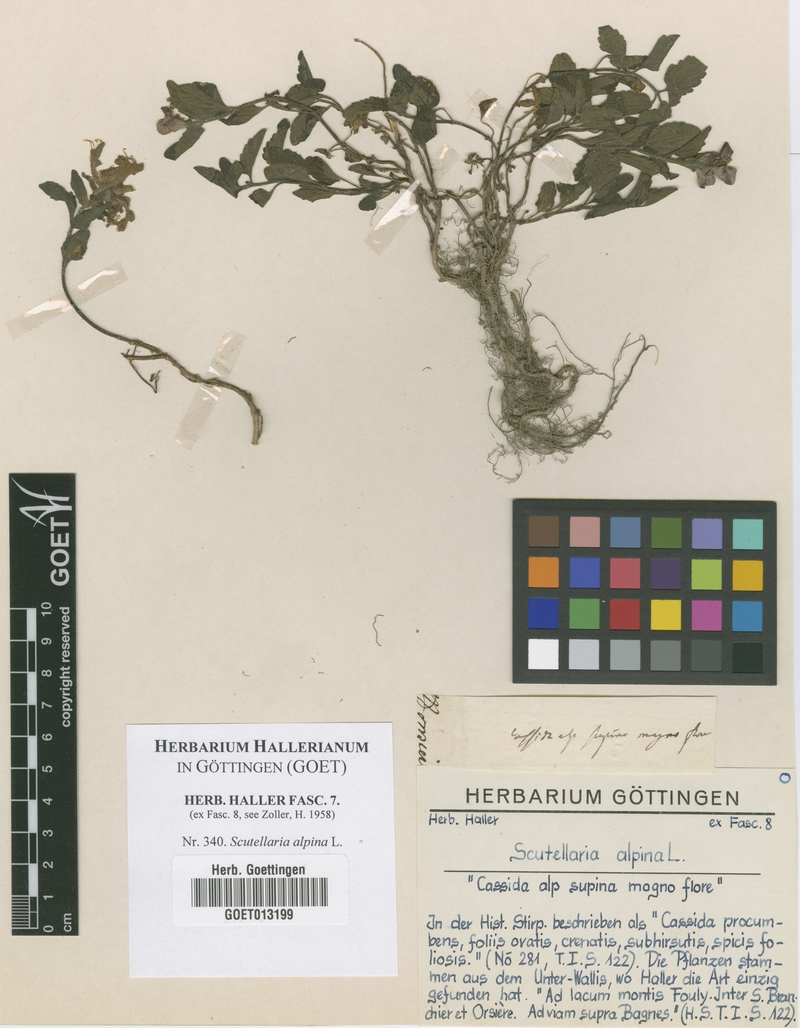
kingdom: Plantae
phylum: Tracheophyta
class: Magnoliopsida
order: Lamiales
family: Lamiaceae
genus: Scutellaria
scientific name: Scutellaria alpina
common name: Alpine scullcap
